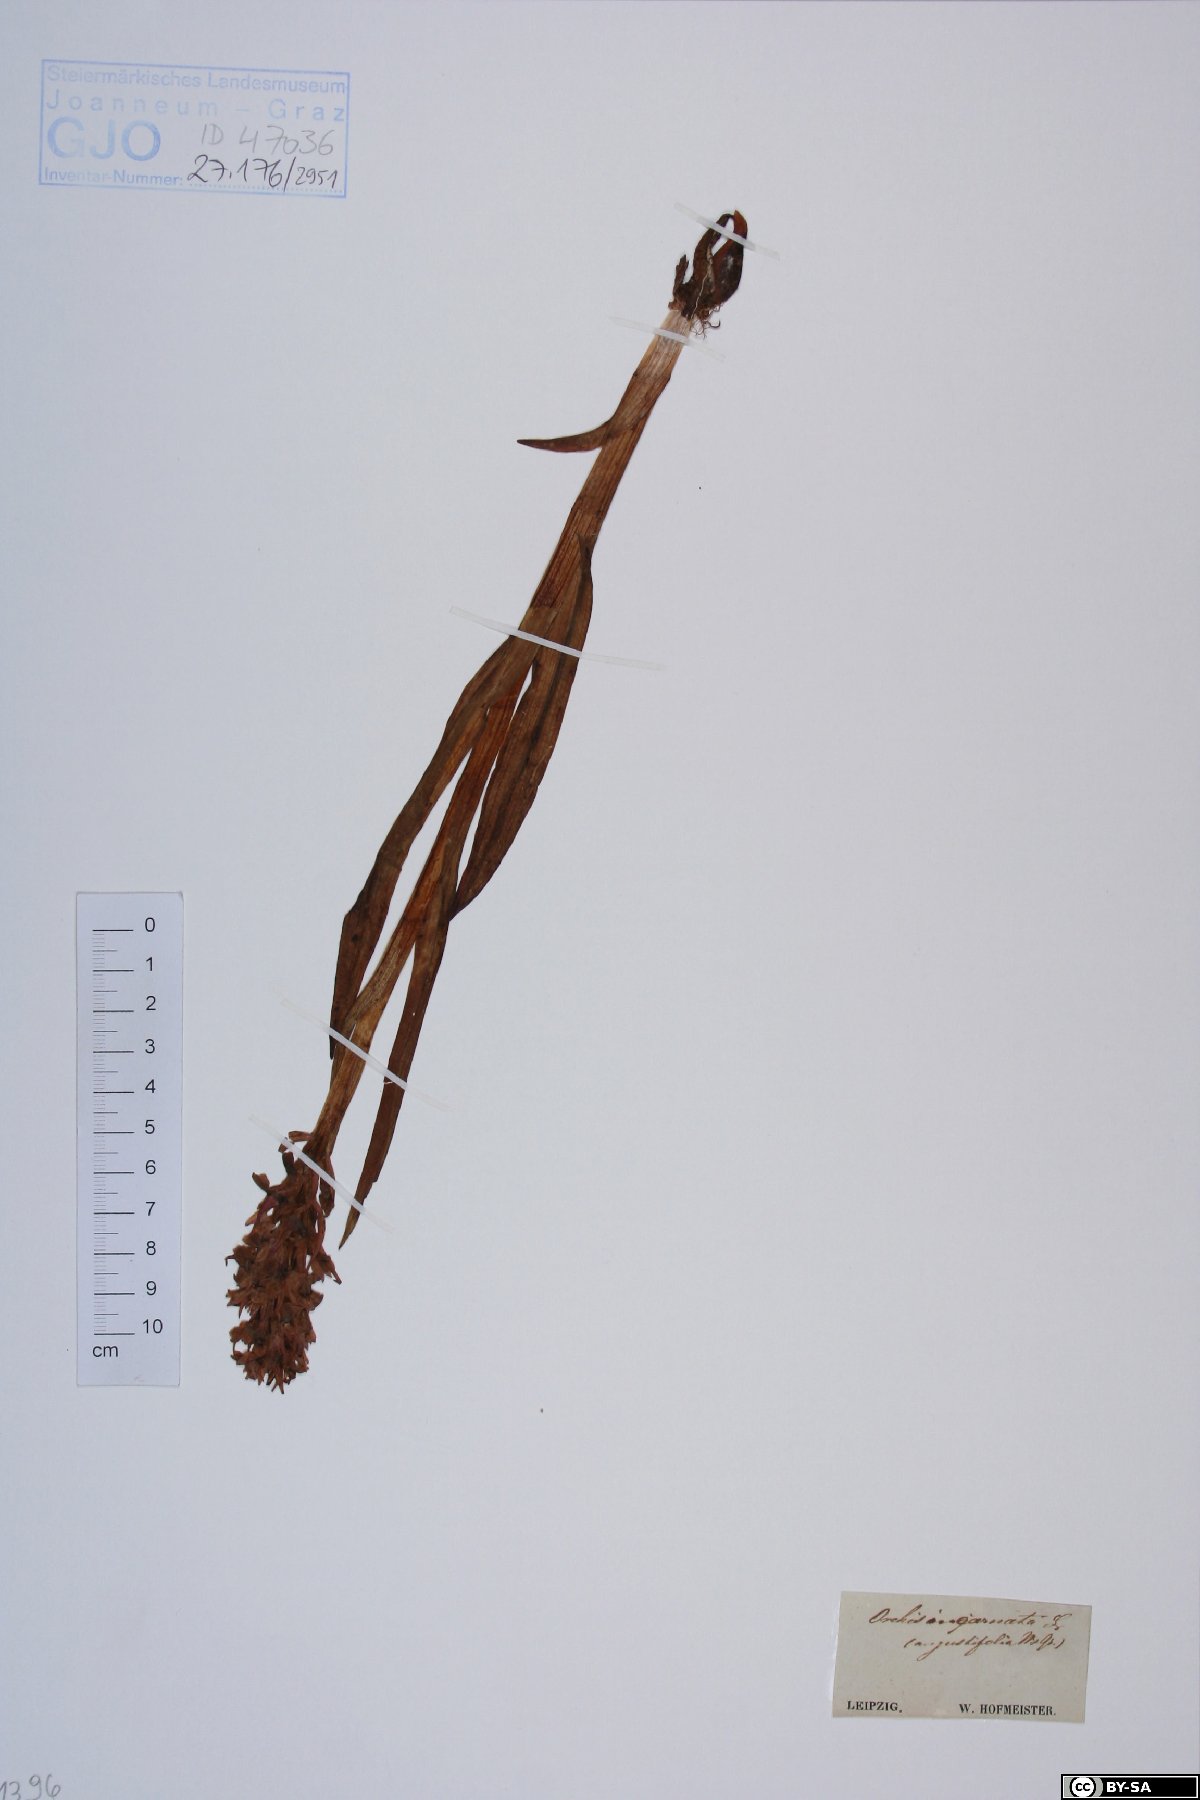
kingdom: Plantae
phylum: Tracheophyta
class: Liliopsida
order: Asparagales
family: Orchidaceae
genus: Dactylorhiza
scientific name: Dactylorhiza incarnata
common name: Early marsh-orchid
